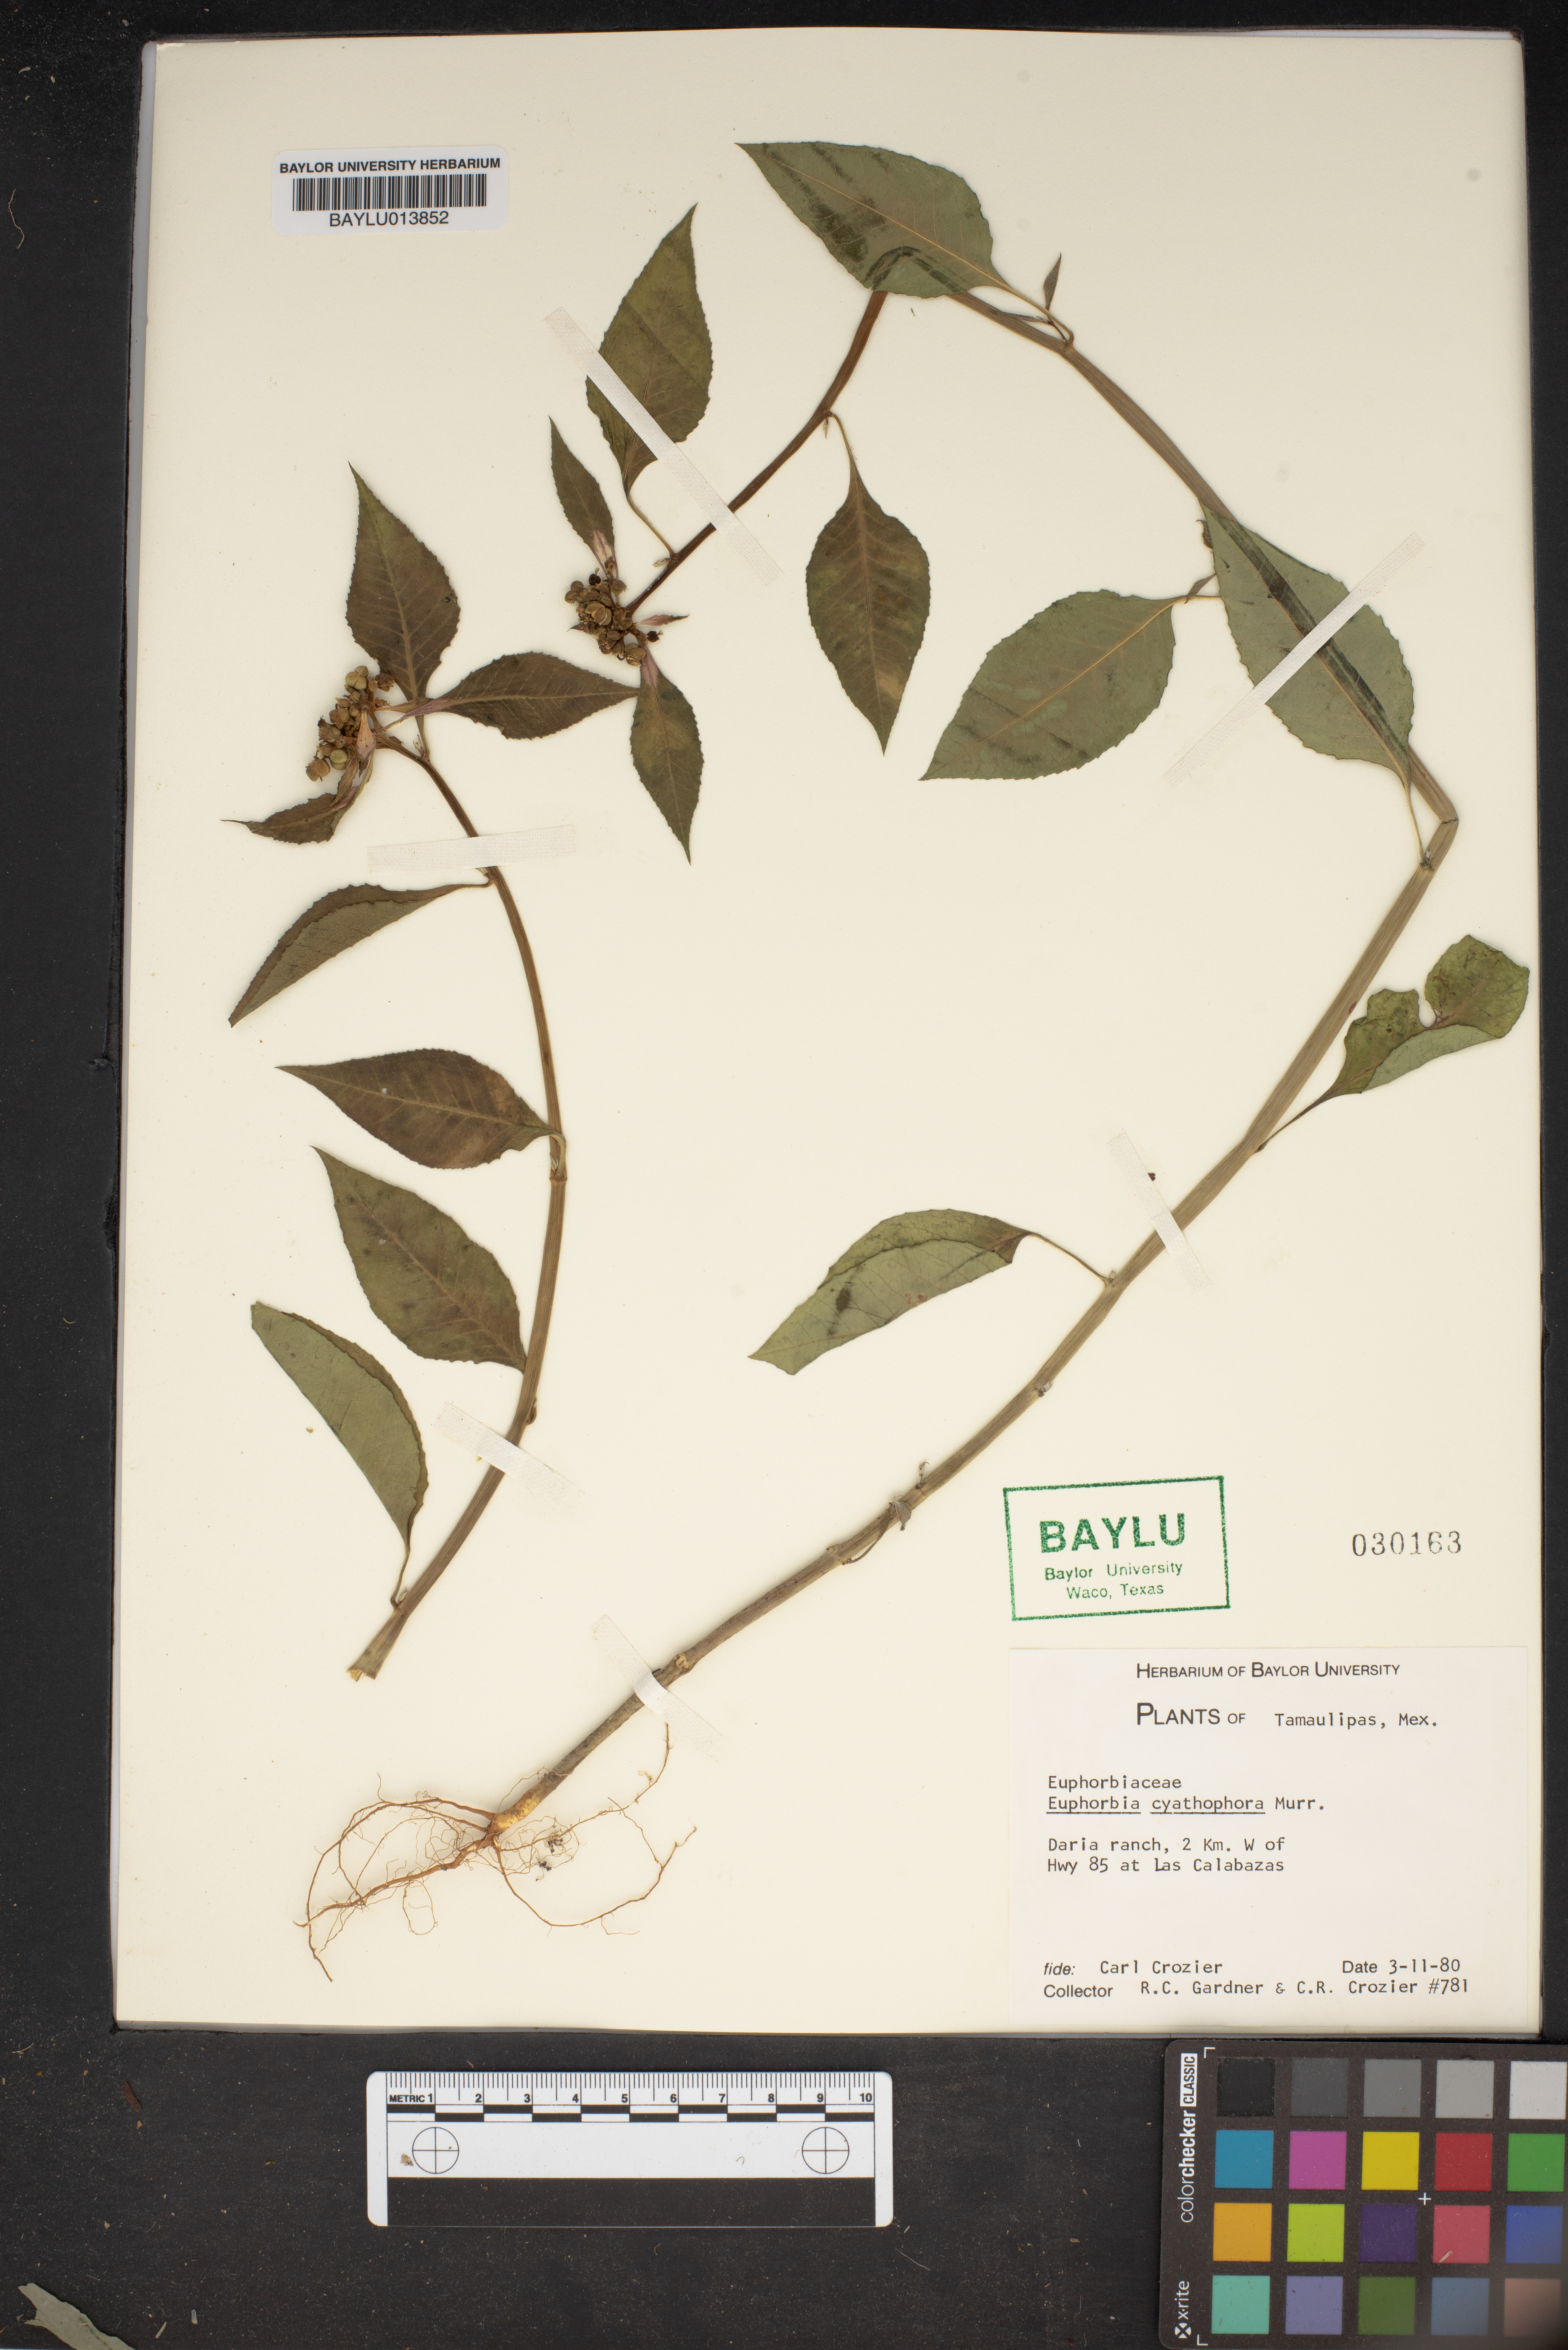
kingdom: Plantae
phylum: Tracheophyta
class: Magnoliopsida
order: Malpighiales
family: Euphorbiaceae
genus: Euphorbia
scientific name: Euphorbia heterophylla
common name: Mexican fireplant
